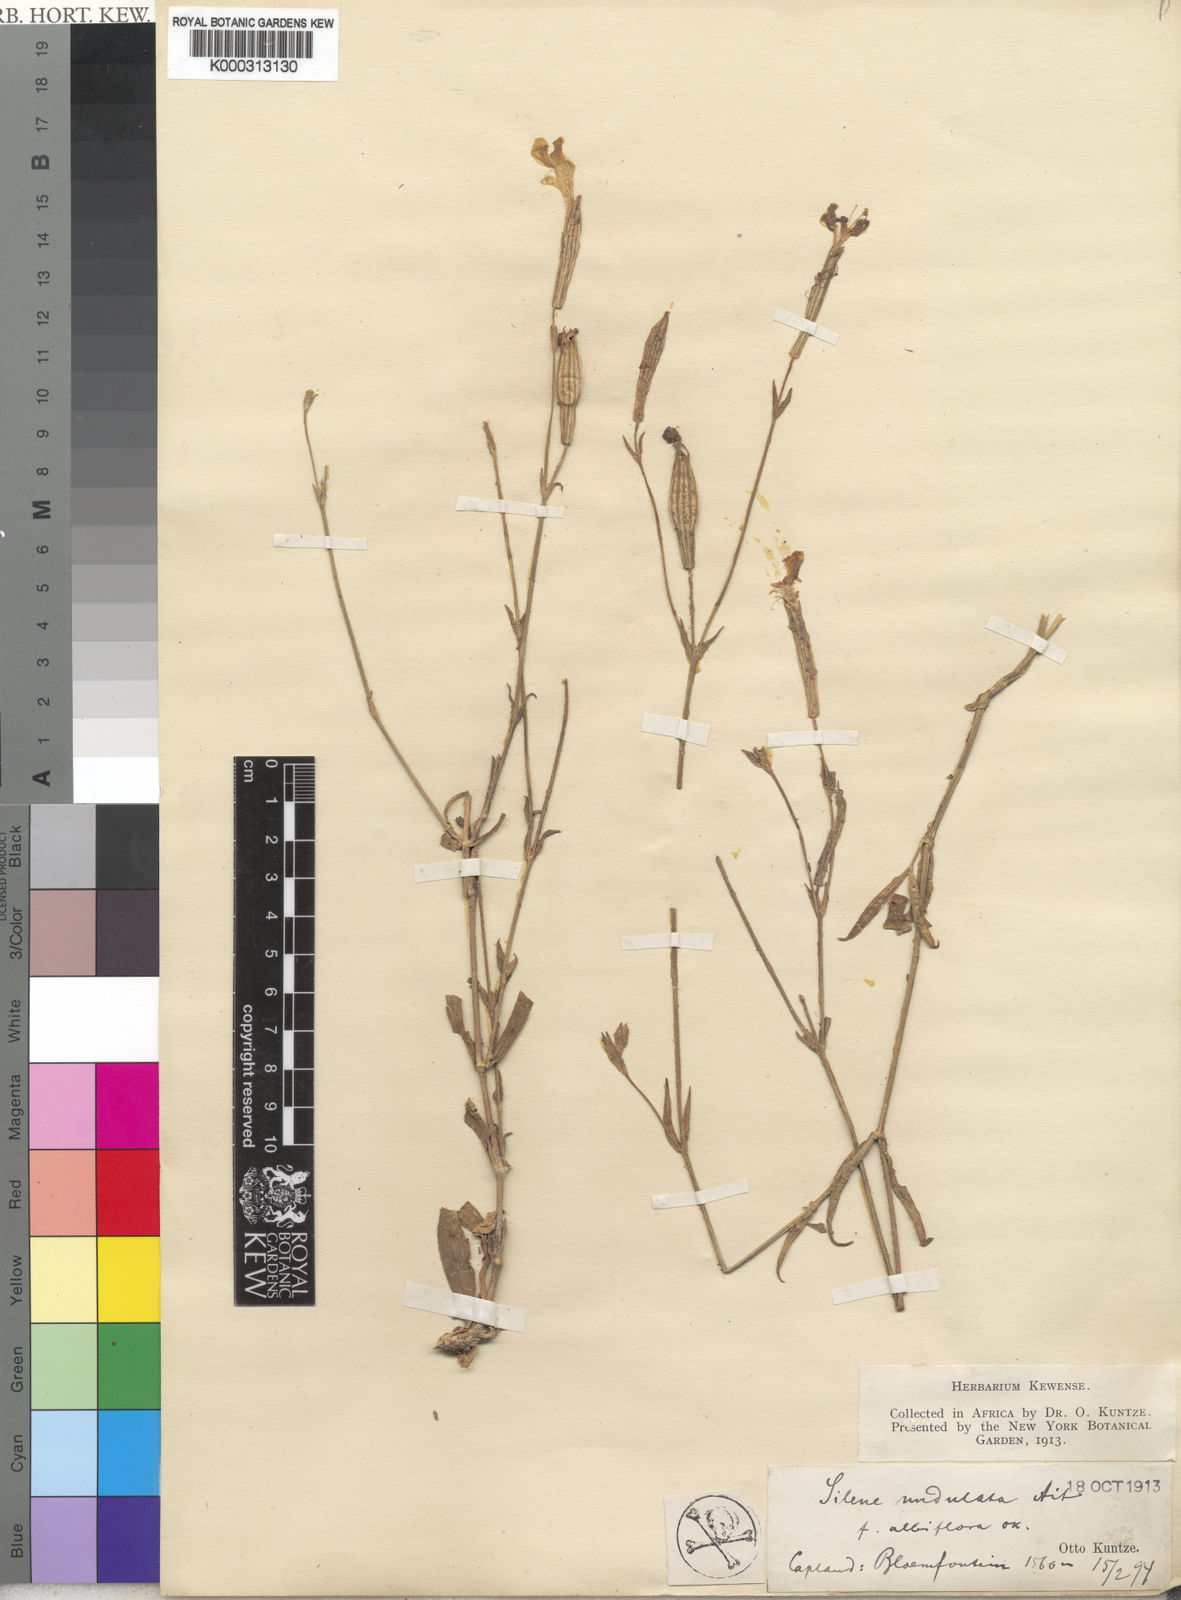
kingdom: Plantae
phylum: Tracheophyta
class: Magnoliopsida
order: Caryophyllales
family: Caryophyllaceae
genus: Silene
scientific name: Silene undulata
